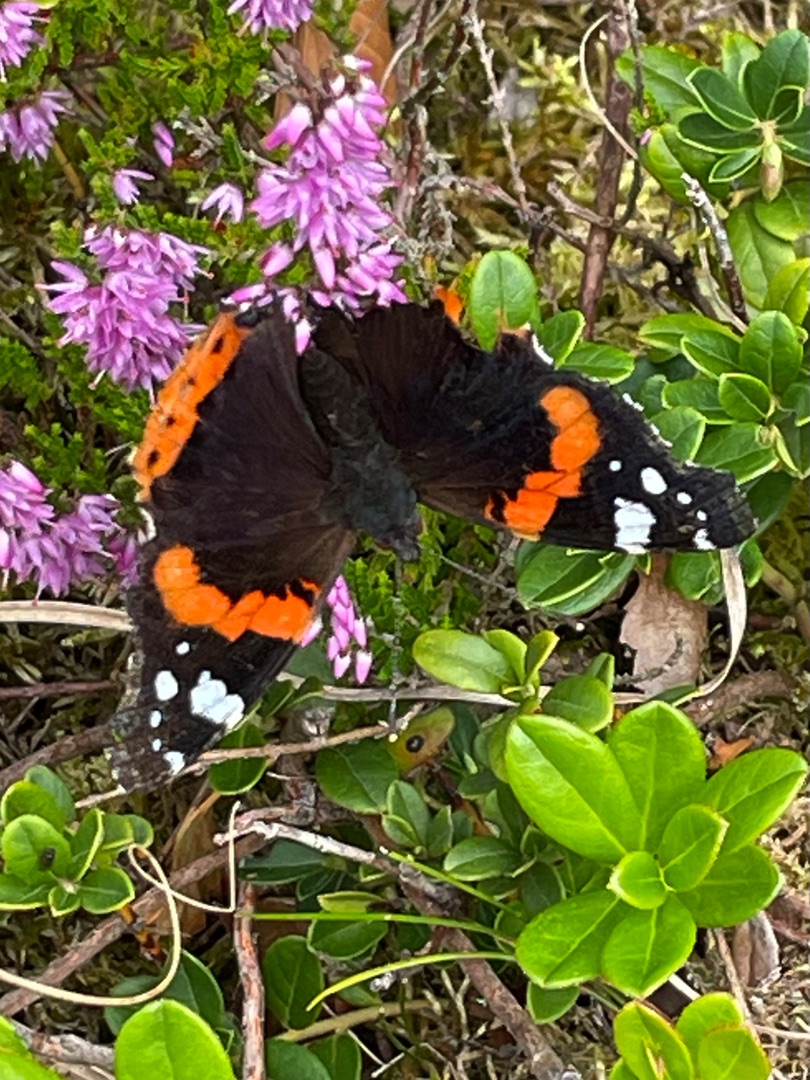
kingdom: Animalia
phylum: Arthropoda
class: Insecta
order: Lepidoptera
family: Nymphalidae
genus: Vanessa
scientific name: Vanessa atalanta
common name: Admiral
